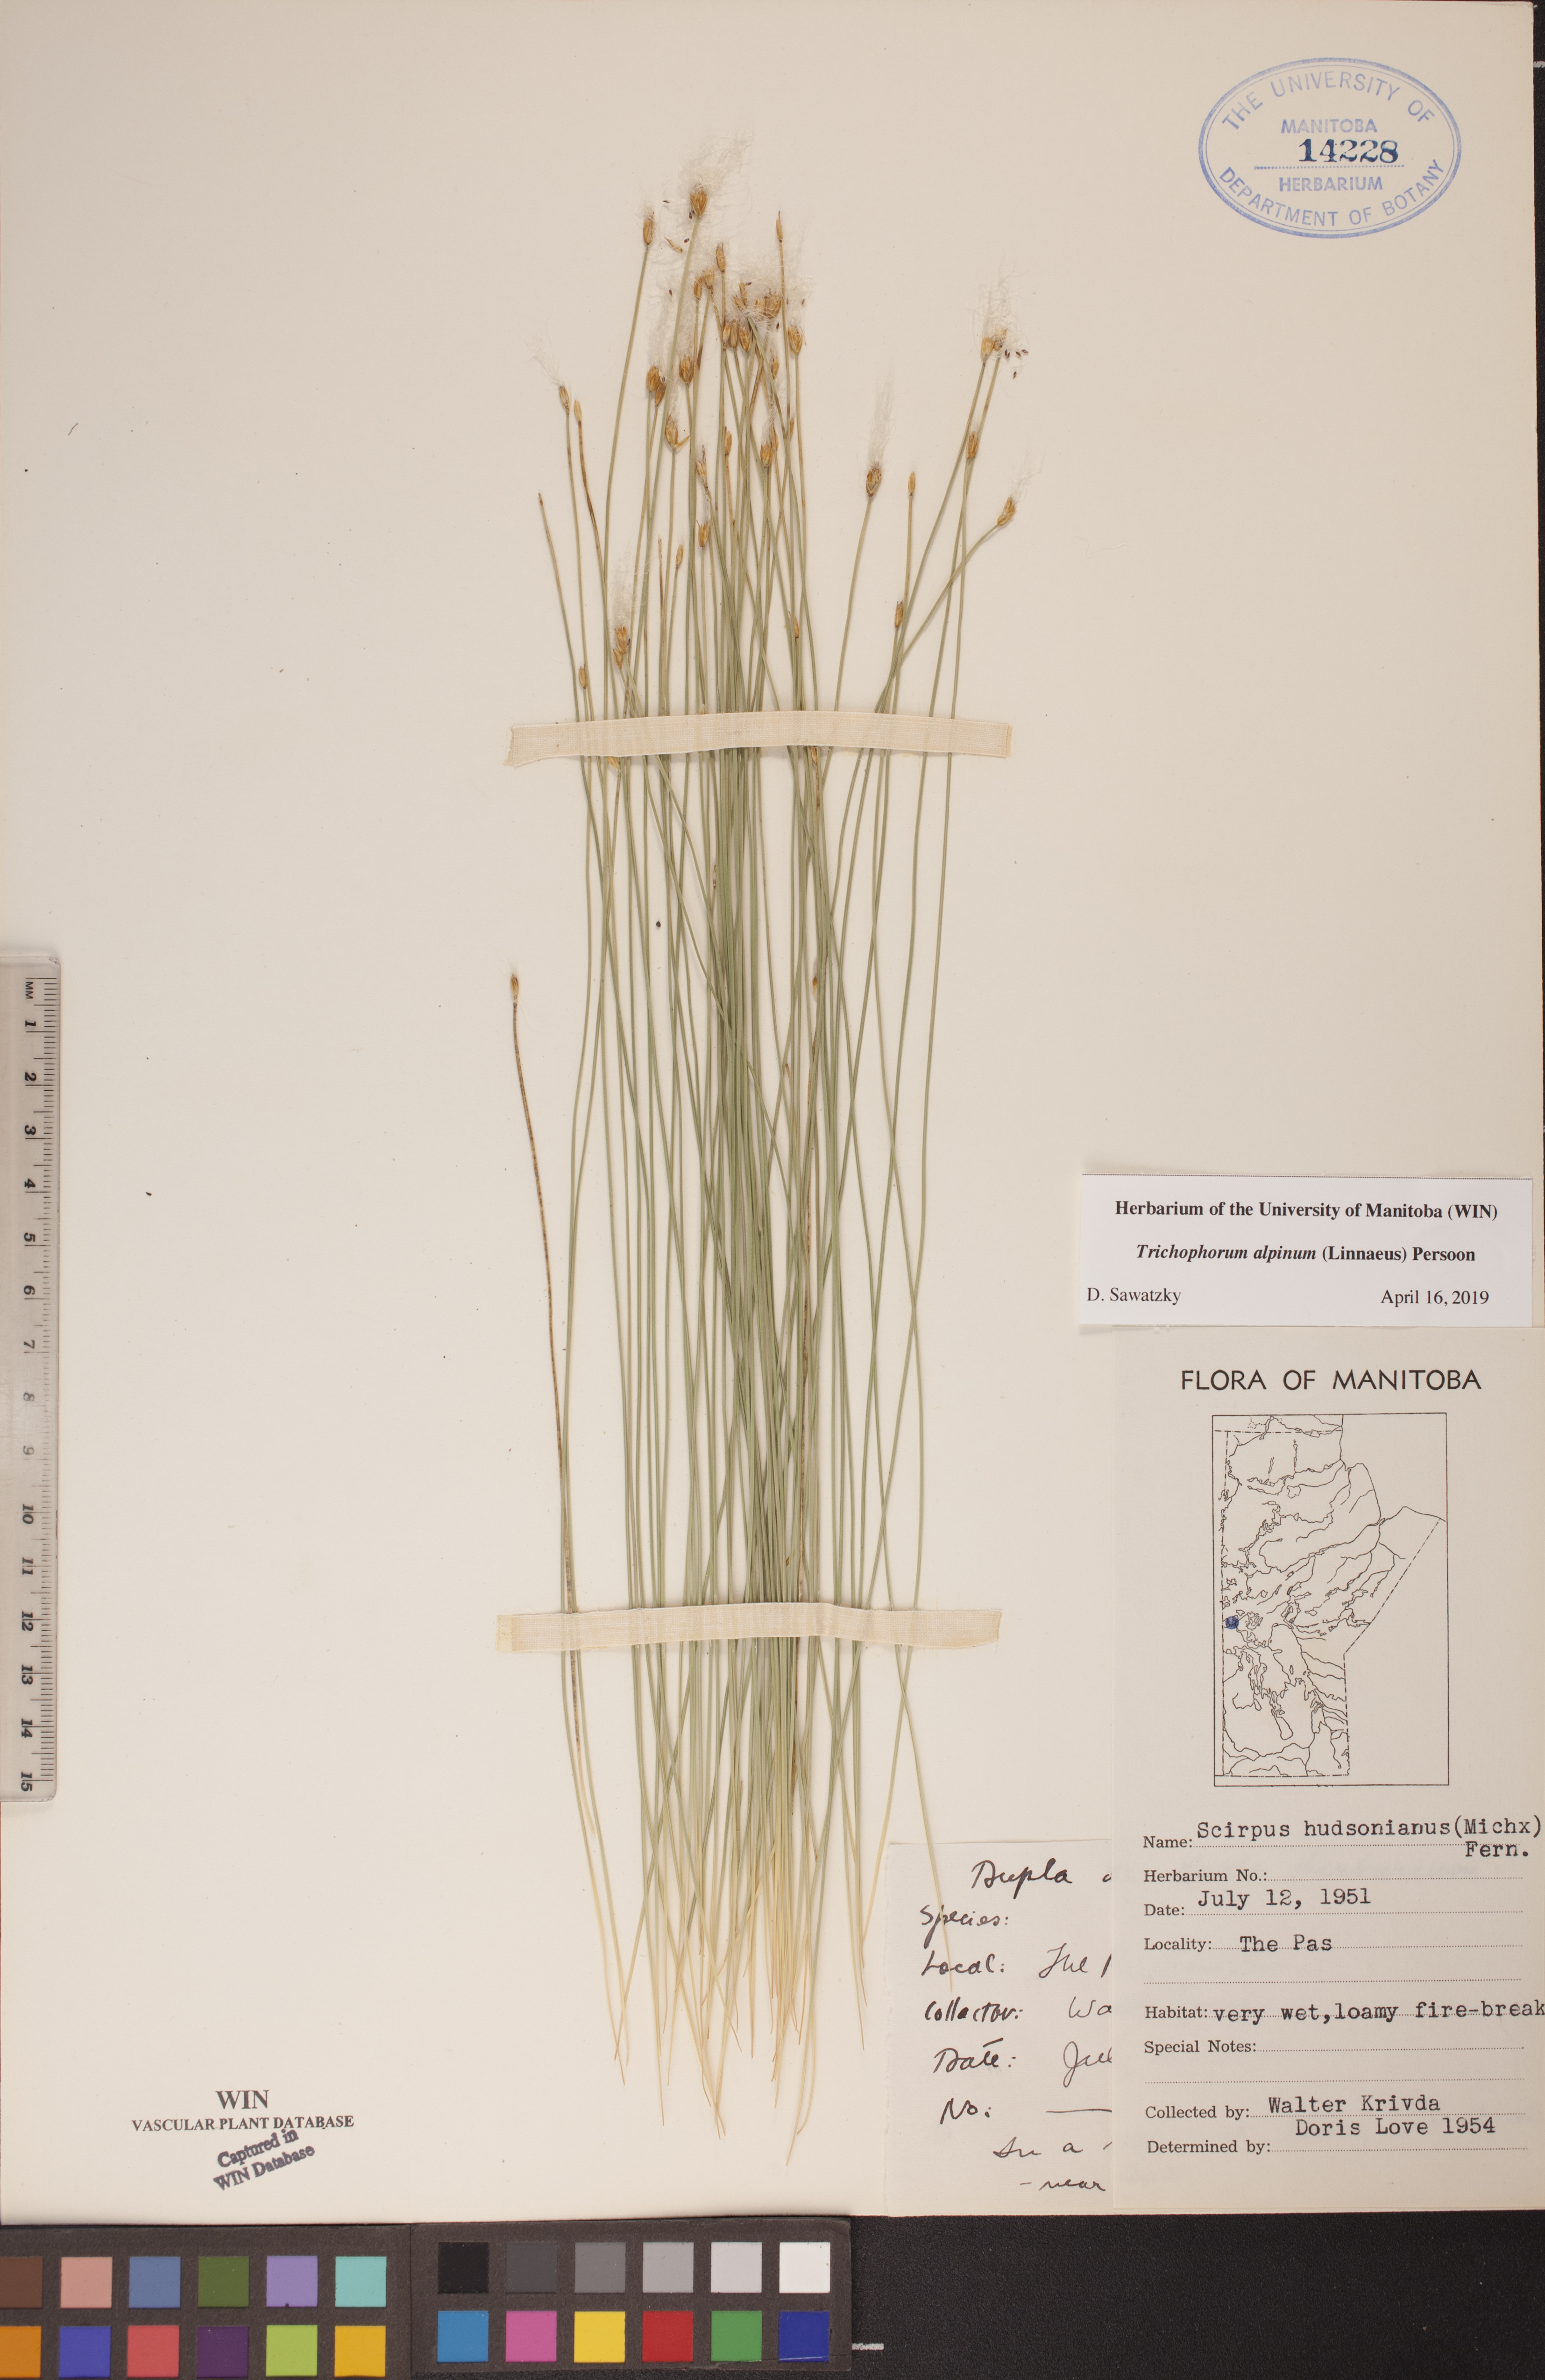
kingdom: Plantae
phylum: Tracheophyta
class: Liliopsida
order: Poales
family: Cyperaceae
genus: Trichophorum
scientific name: Trichophorum alpinum
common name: Alpine bulrush
